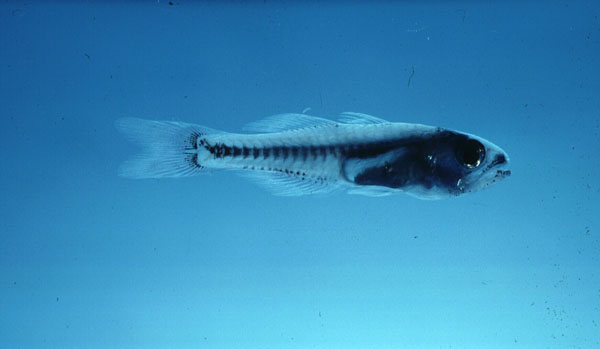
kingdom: Animalia
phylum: Chordata
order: Perciformes
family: Apogonidae
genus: Gymnapogon
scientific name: Gymnapogon africanus
